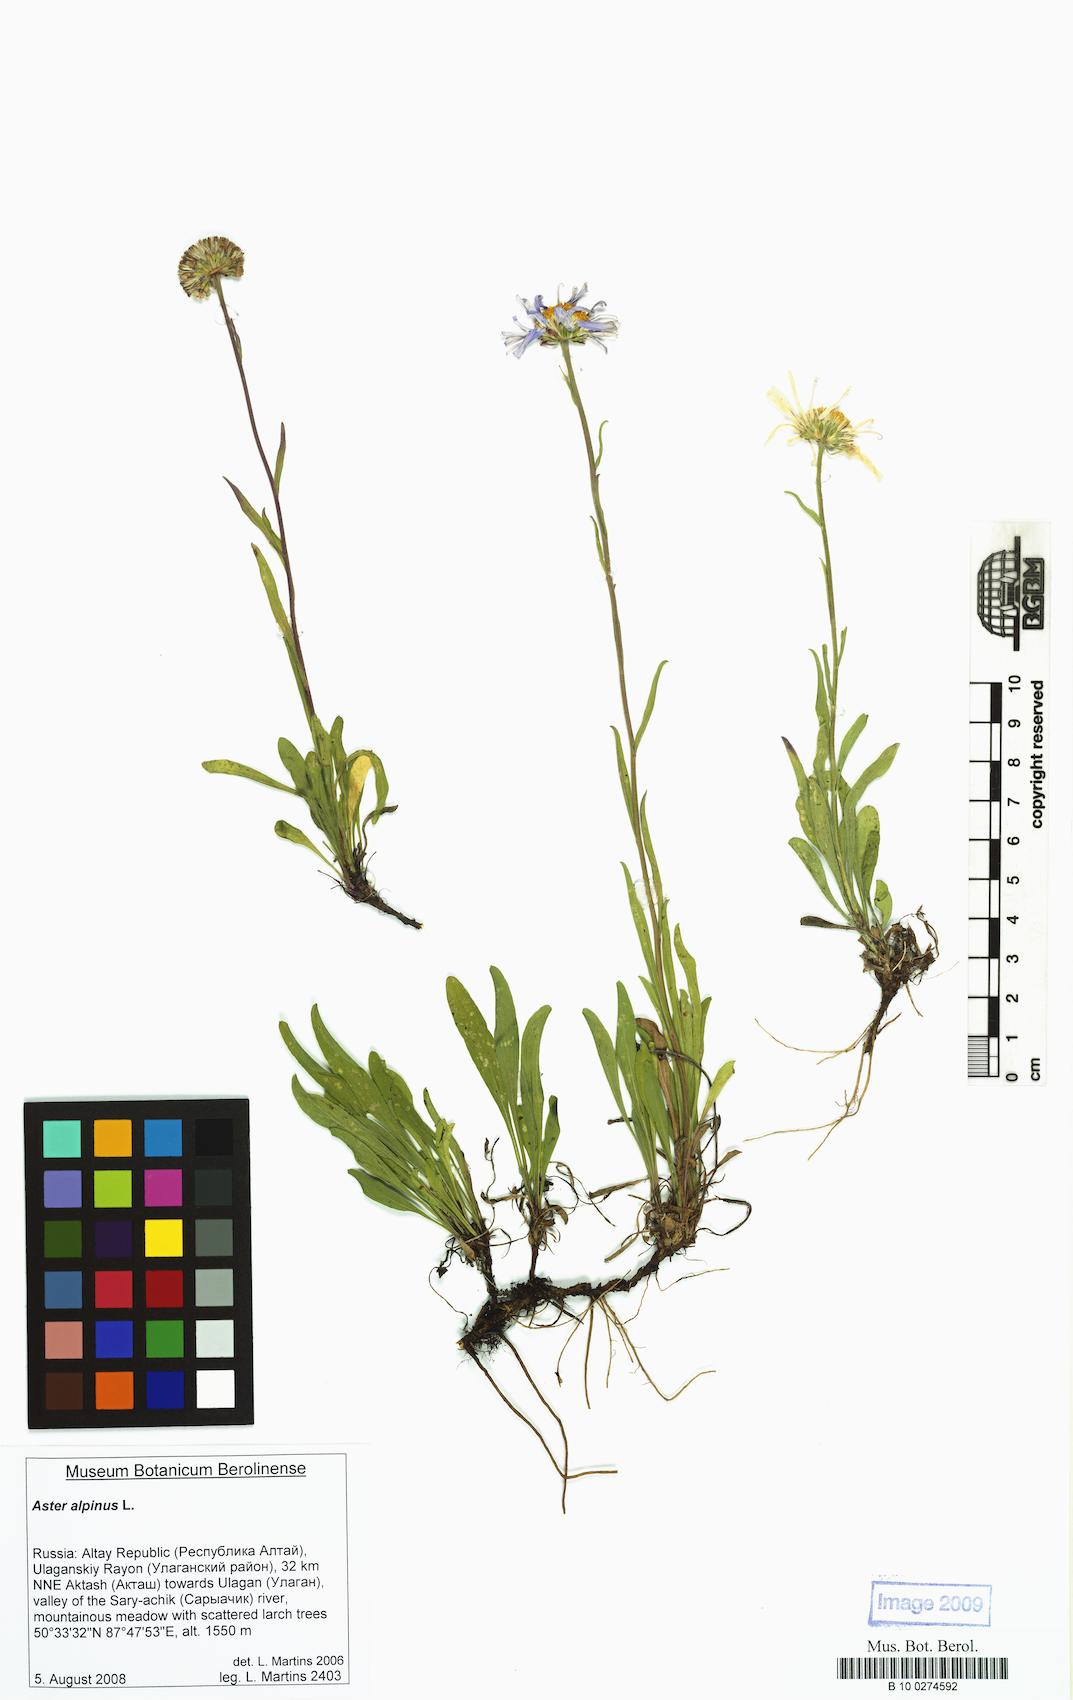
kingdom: Plantae
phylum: Tracheophyta
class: Magnoliopsida
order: Asterales
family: Asteraceae
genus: Aster
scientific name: Aster alpinus
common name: Alpine aster
